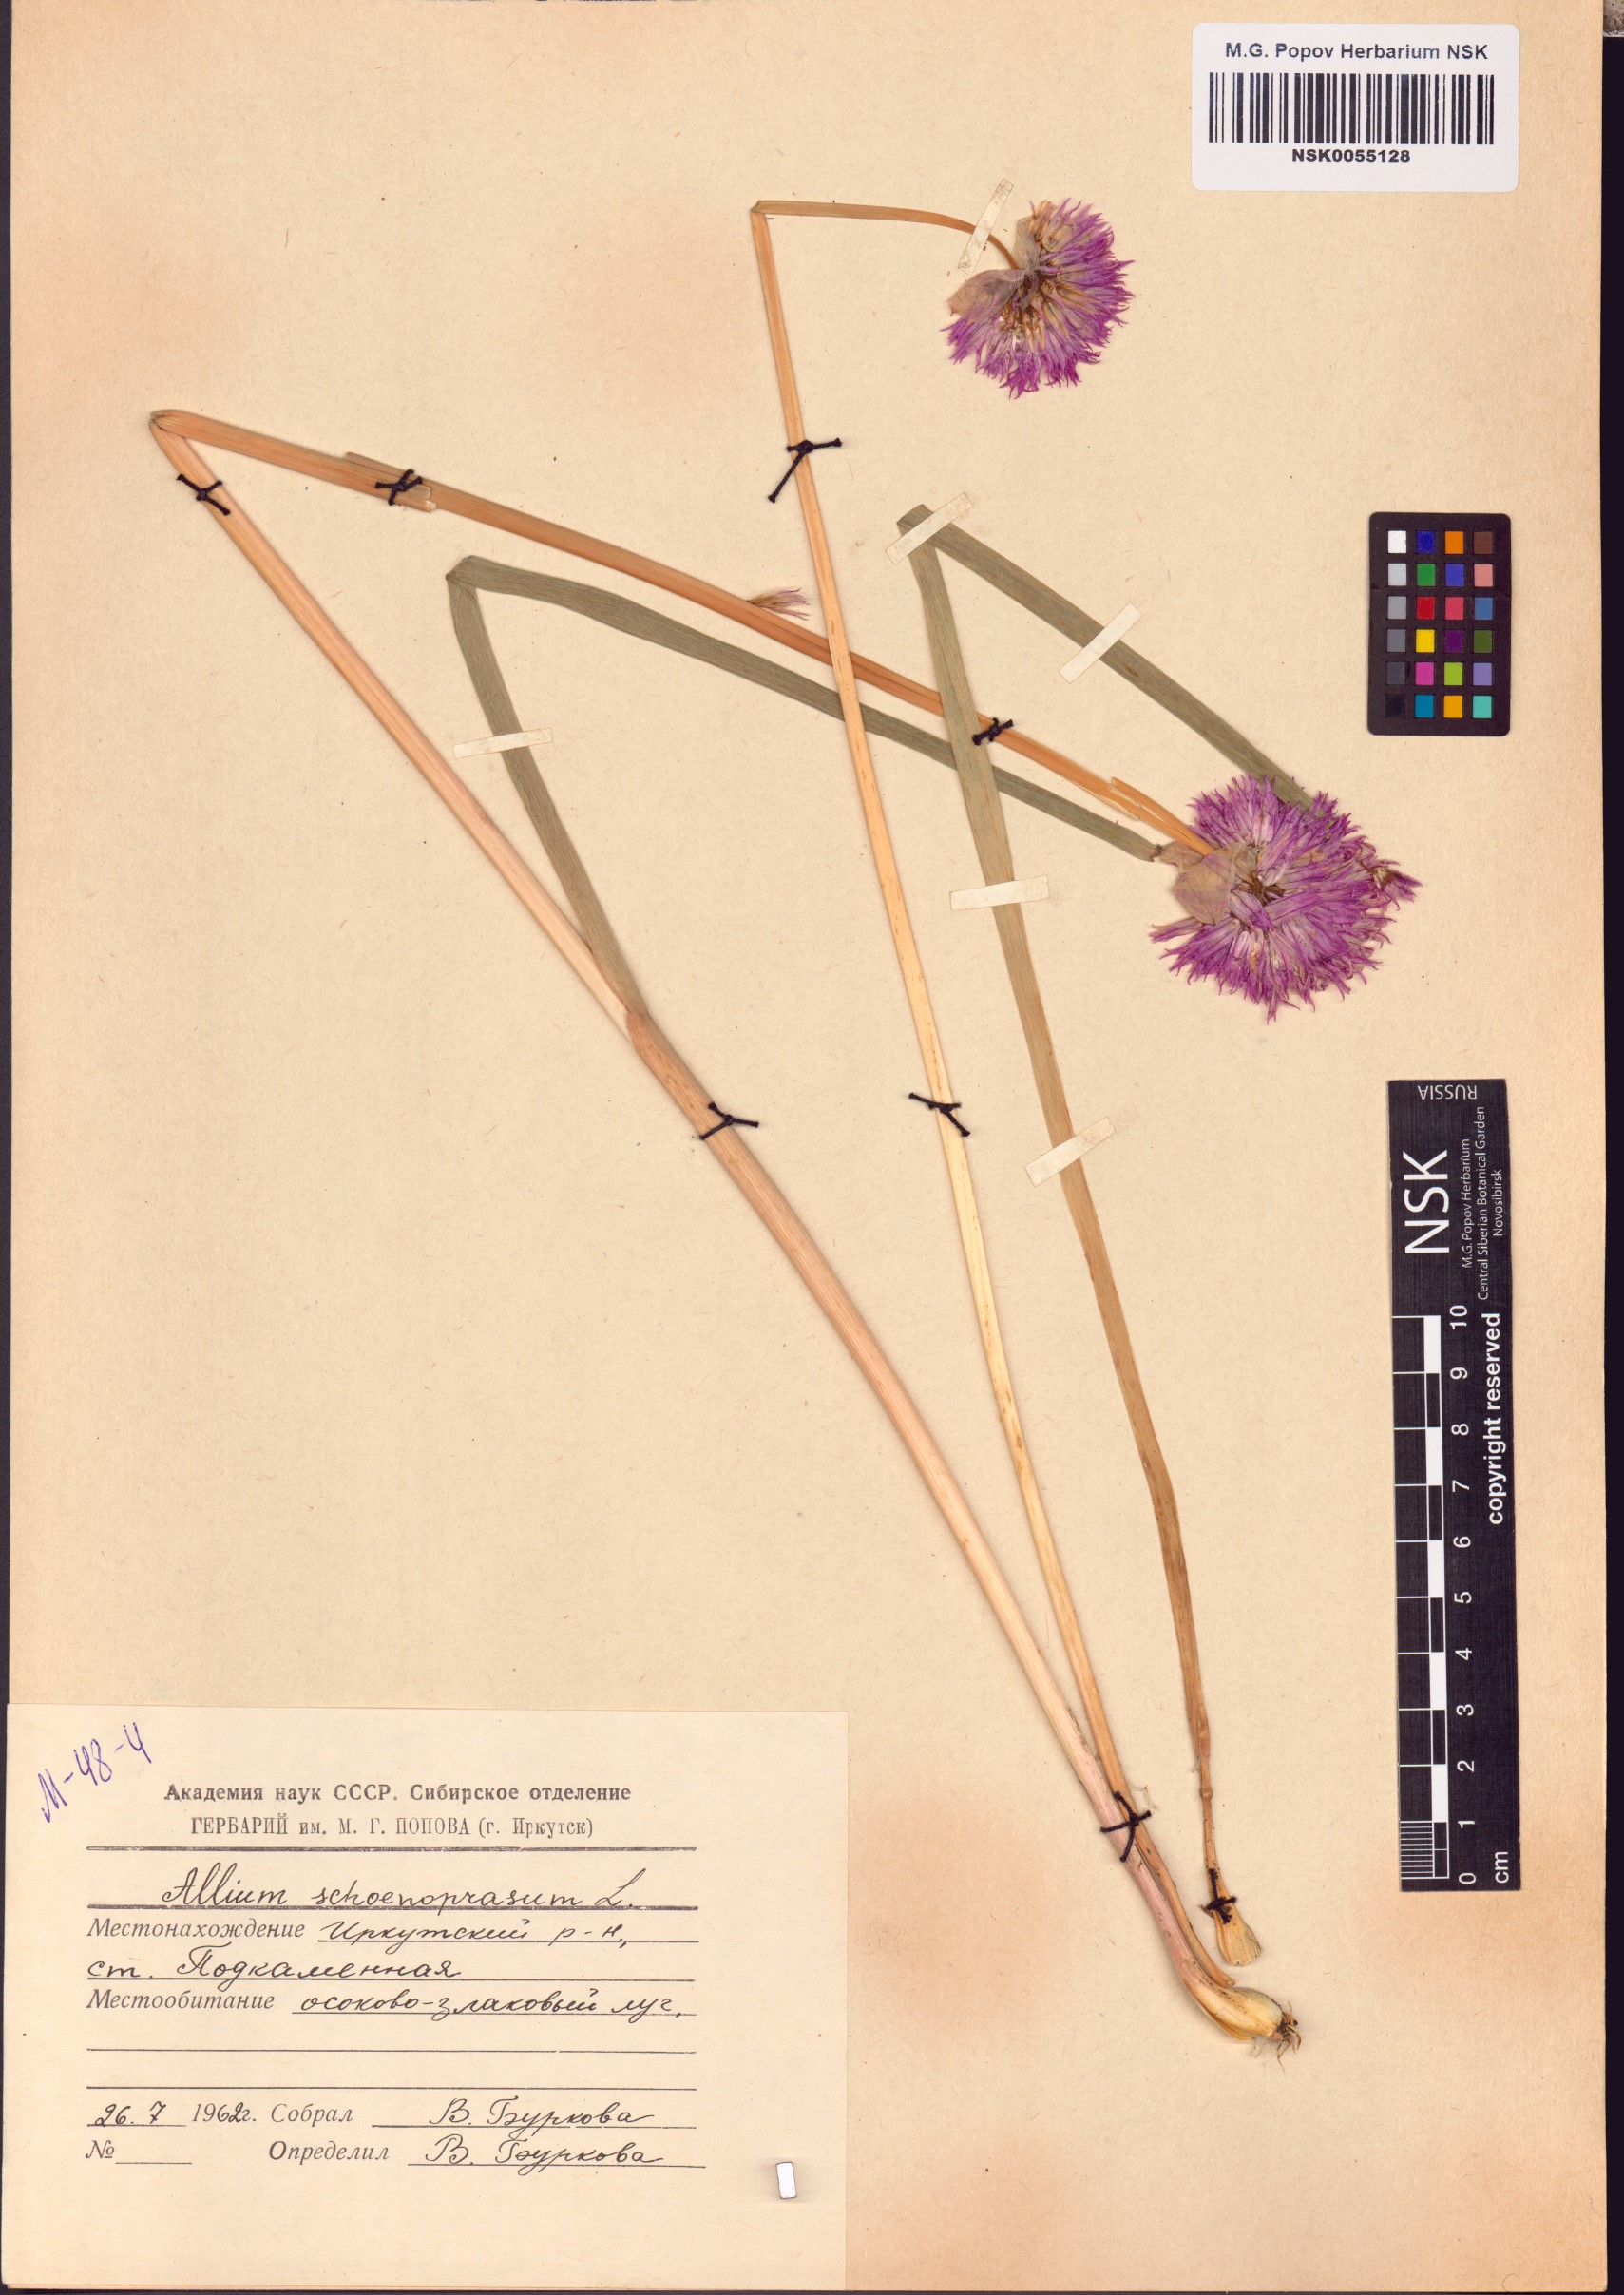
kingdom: Plantae
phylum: Tracheophyta
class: Liliopsida
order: Asparagales
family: Amaryllidaceae
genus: Allium
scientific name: Allium schoenoprasum
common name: Chives
